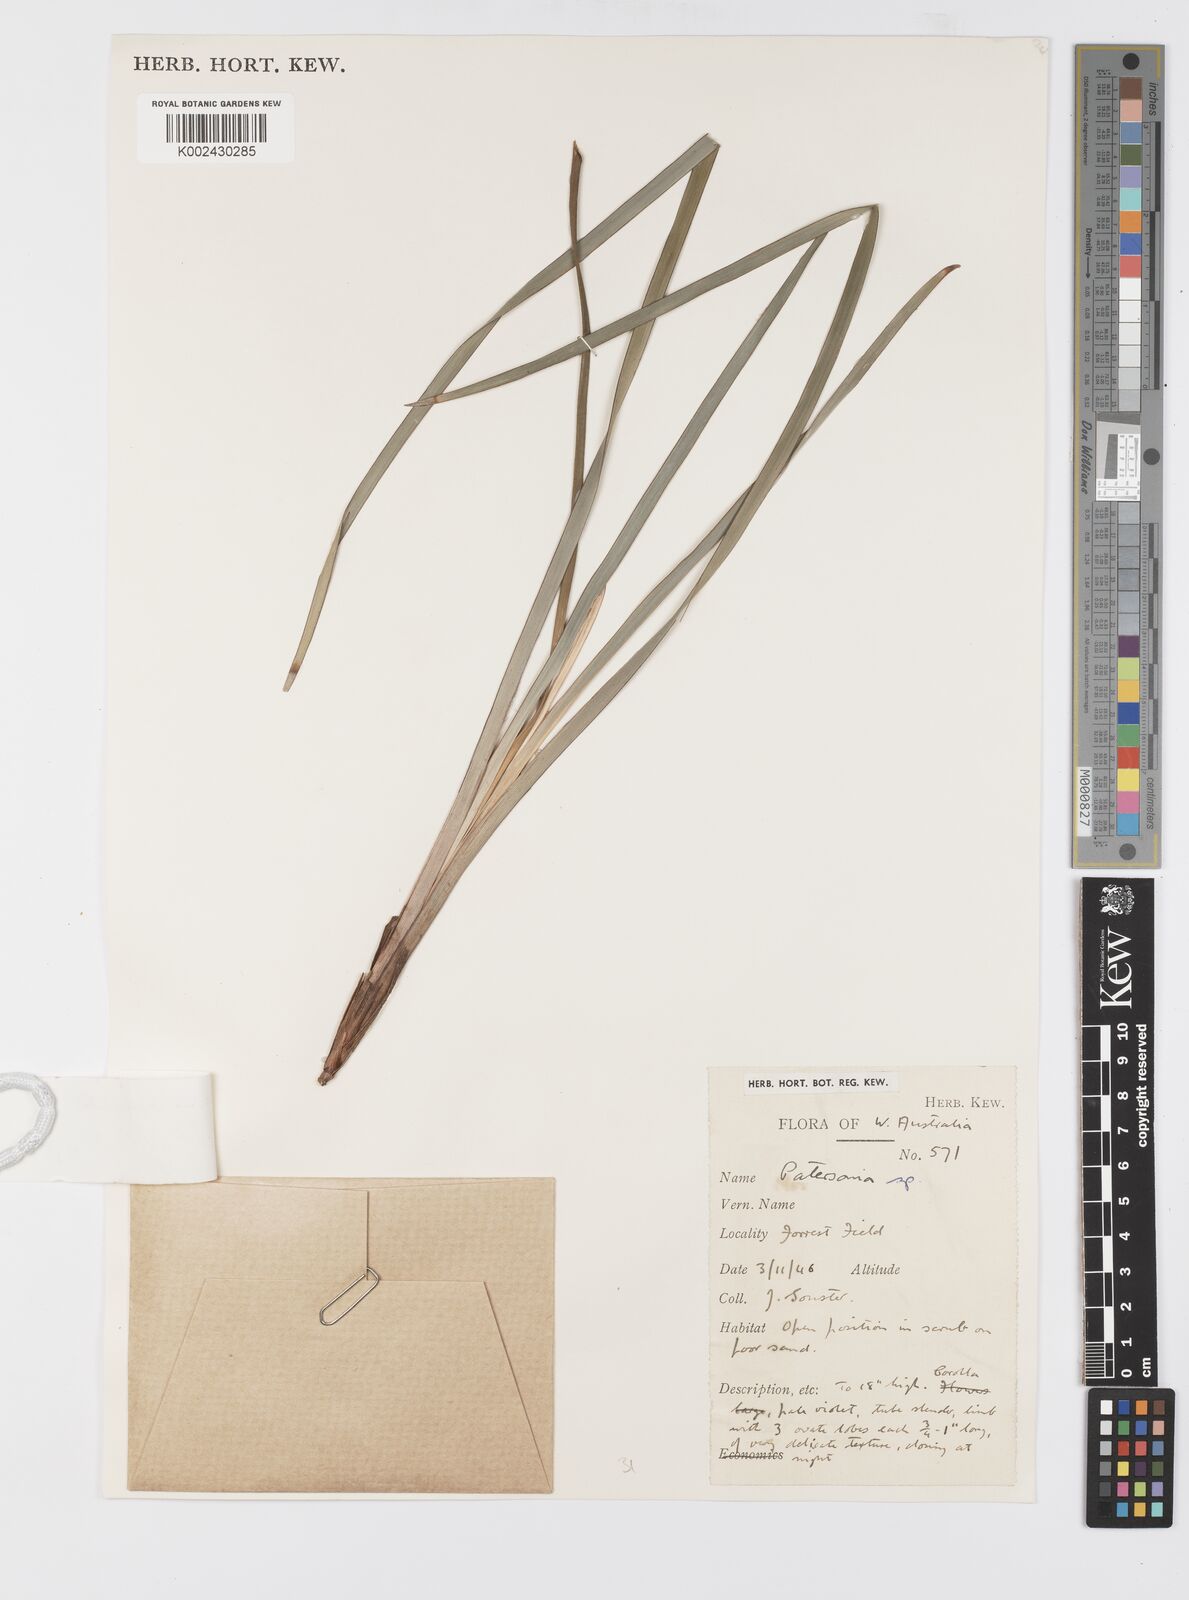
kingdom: Plantae
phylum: Tracheophyta
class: Liliopsida
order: Asparagales
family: Iridaceae
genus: Patersonia
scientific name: Patersonia
